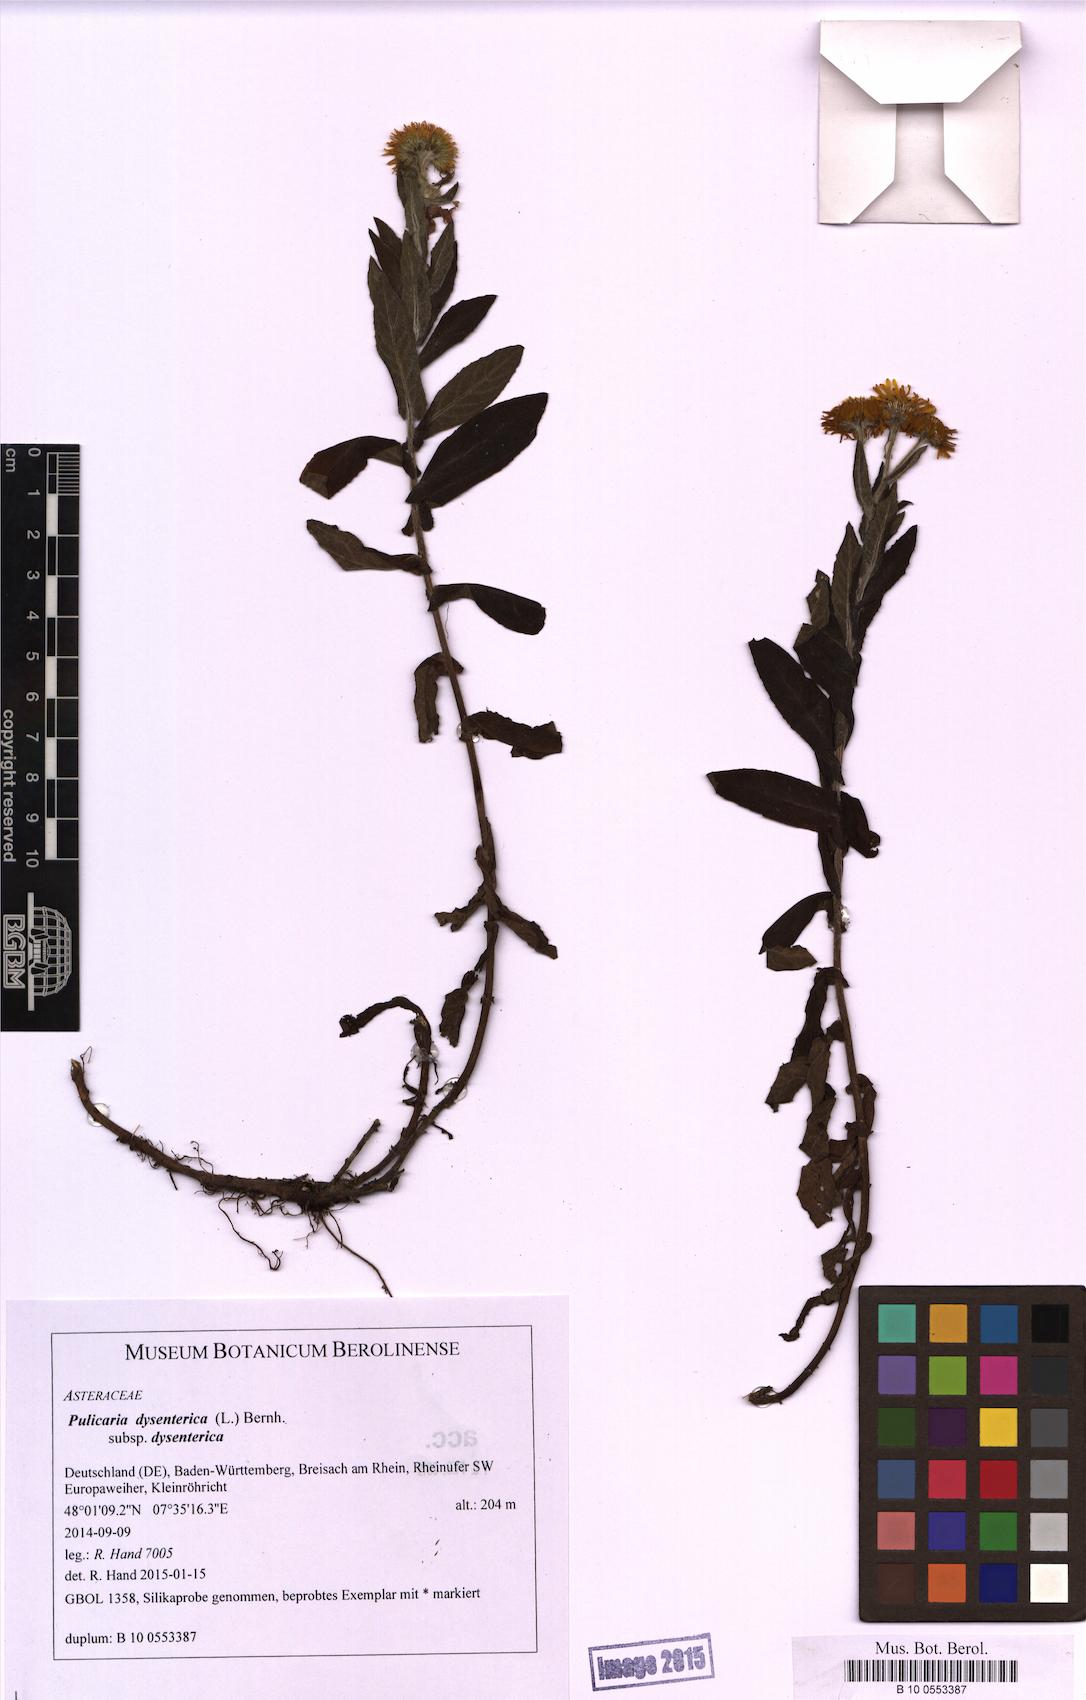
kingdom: Plantae
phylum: Tracheophyta
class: Magnoliopsida
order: Asterales
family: Asteraceae
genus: Pulicaria
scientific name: Pulicaria dysenterica
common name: Common fleabane
